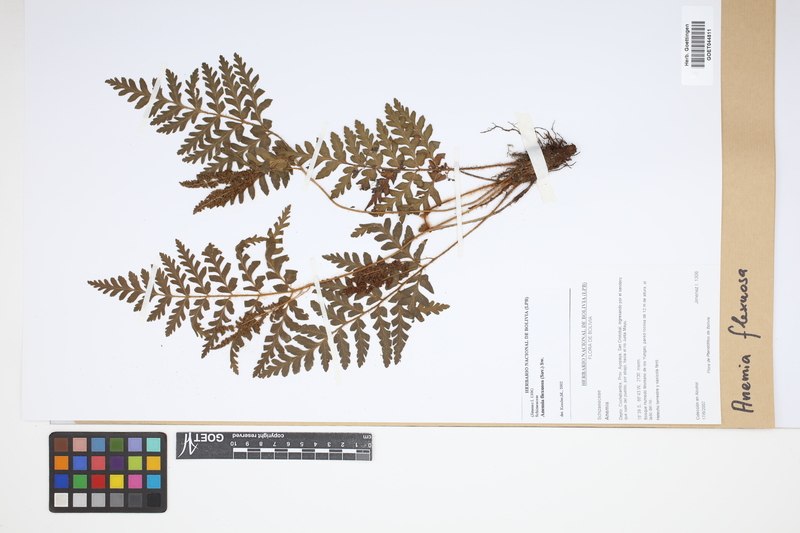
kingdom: Plantae
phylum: Tracheophyta
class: Polypodiopsida
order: Schizaeales
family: Anemiaceae
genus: Anemia
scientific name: Anemia flexuosa
